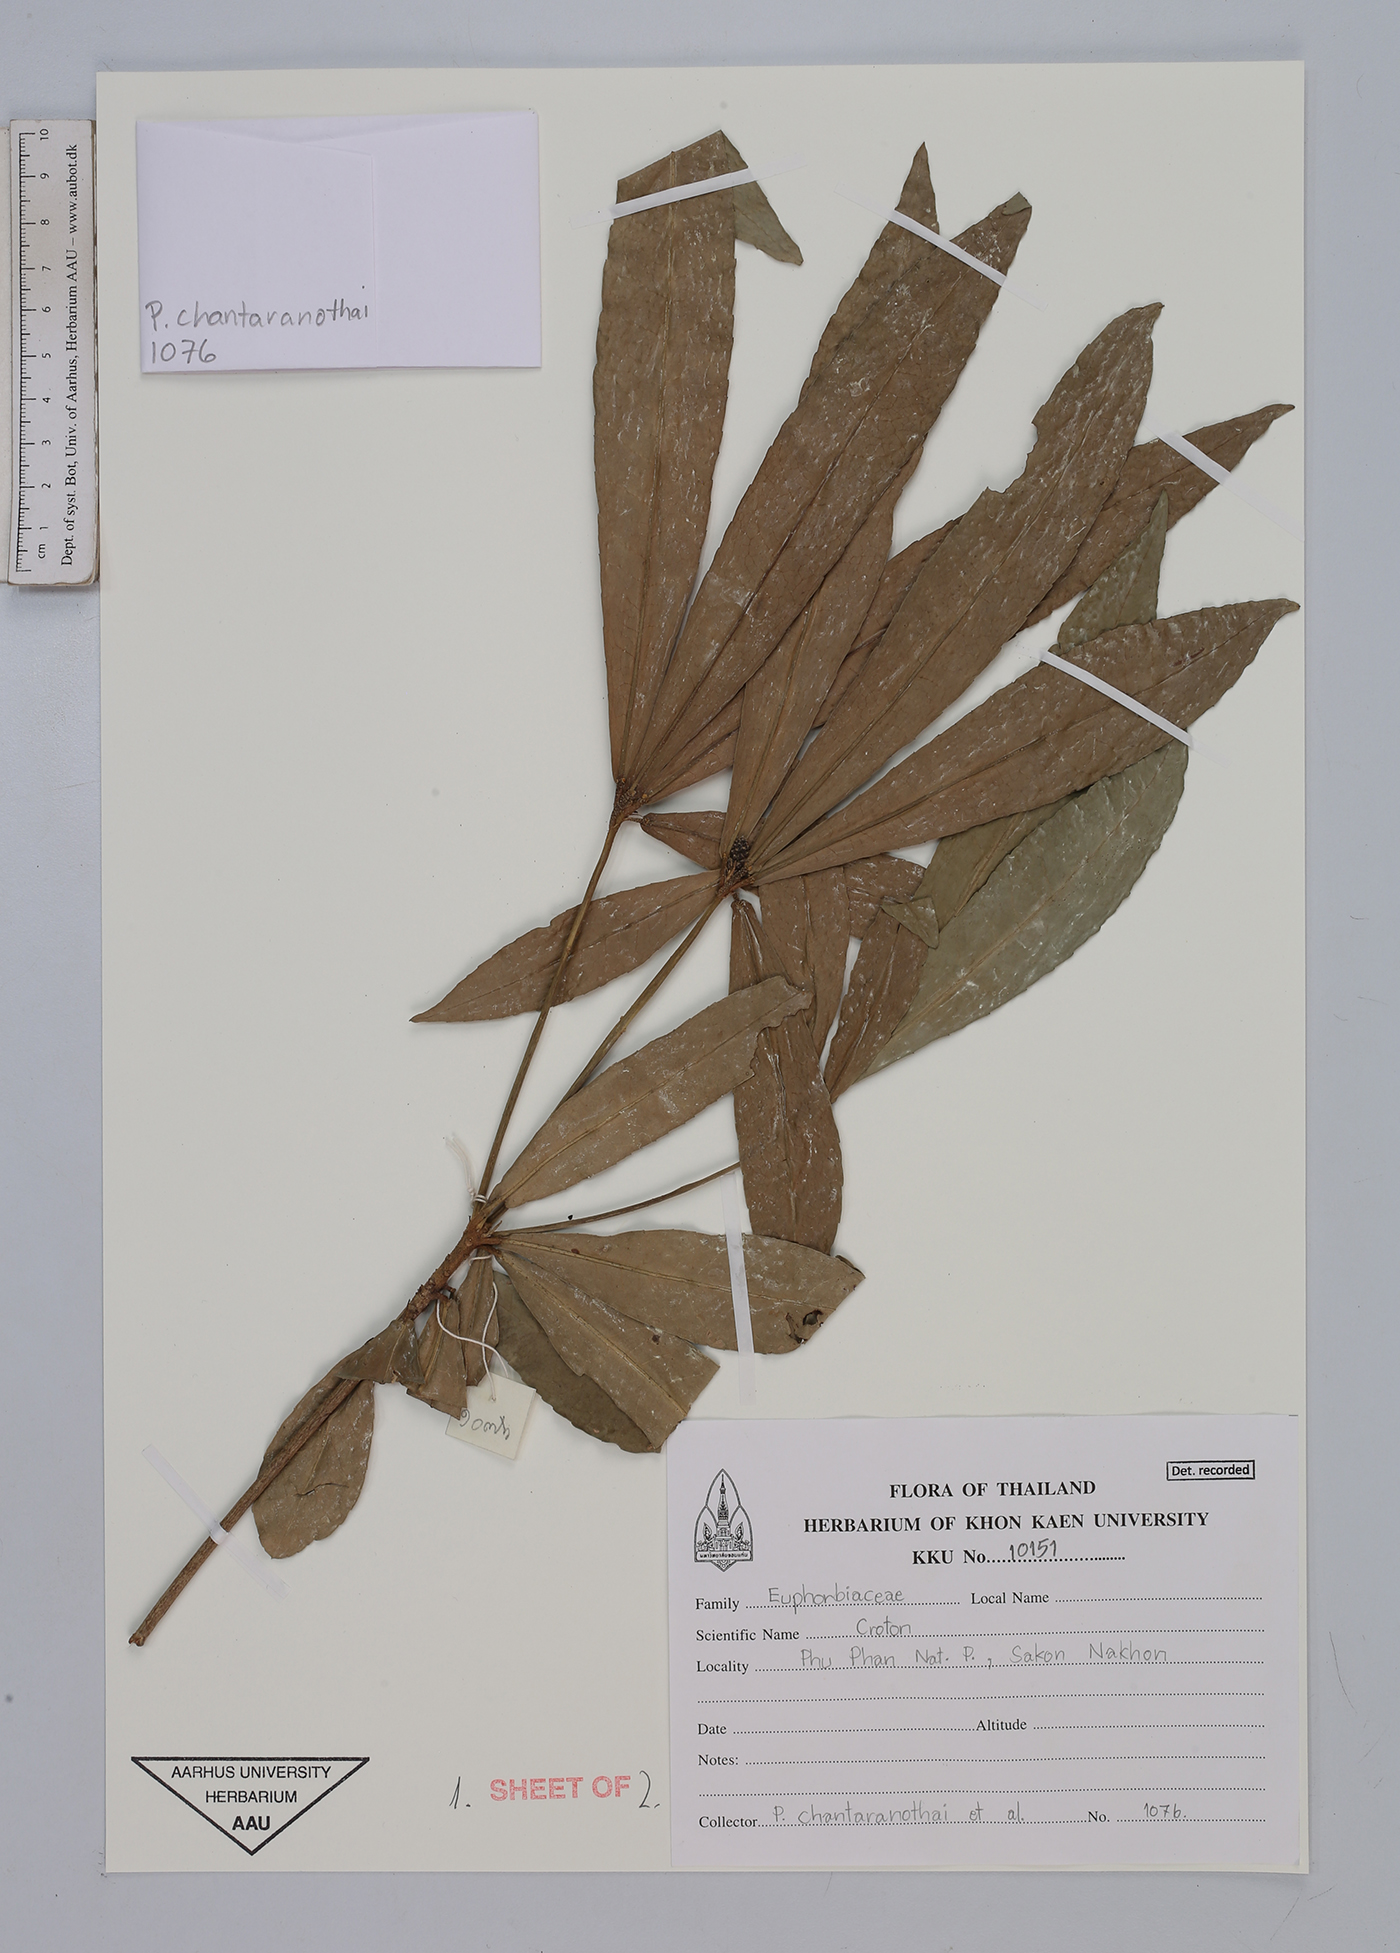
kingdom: Plantae
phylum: Tracheophyta
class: Magnoliopsida
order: Malpighiales
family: Euphorbiaceae
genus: Croton
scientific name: Croton
